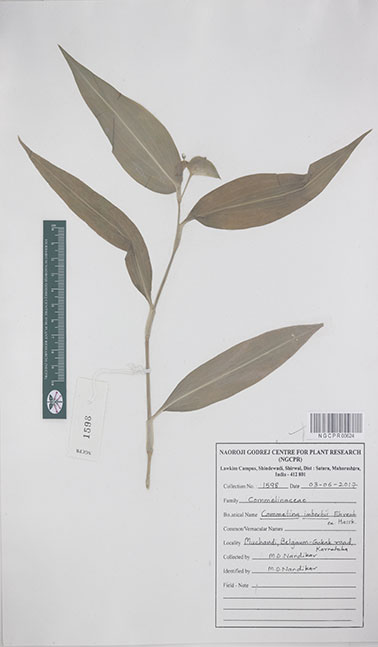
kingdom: Plantae
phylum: Tracheophyta
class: Liliopsida
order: Commelinales
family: Commelinaceae
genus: Commelina
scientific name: Commelina imberbis
